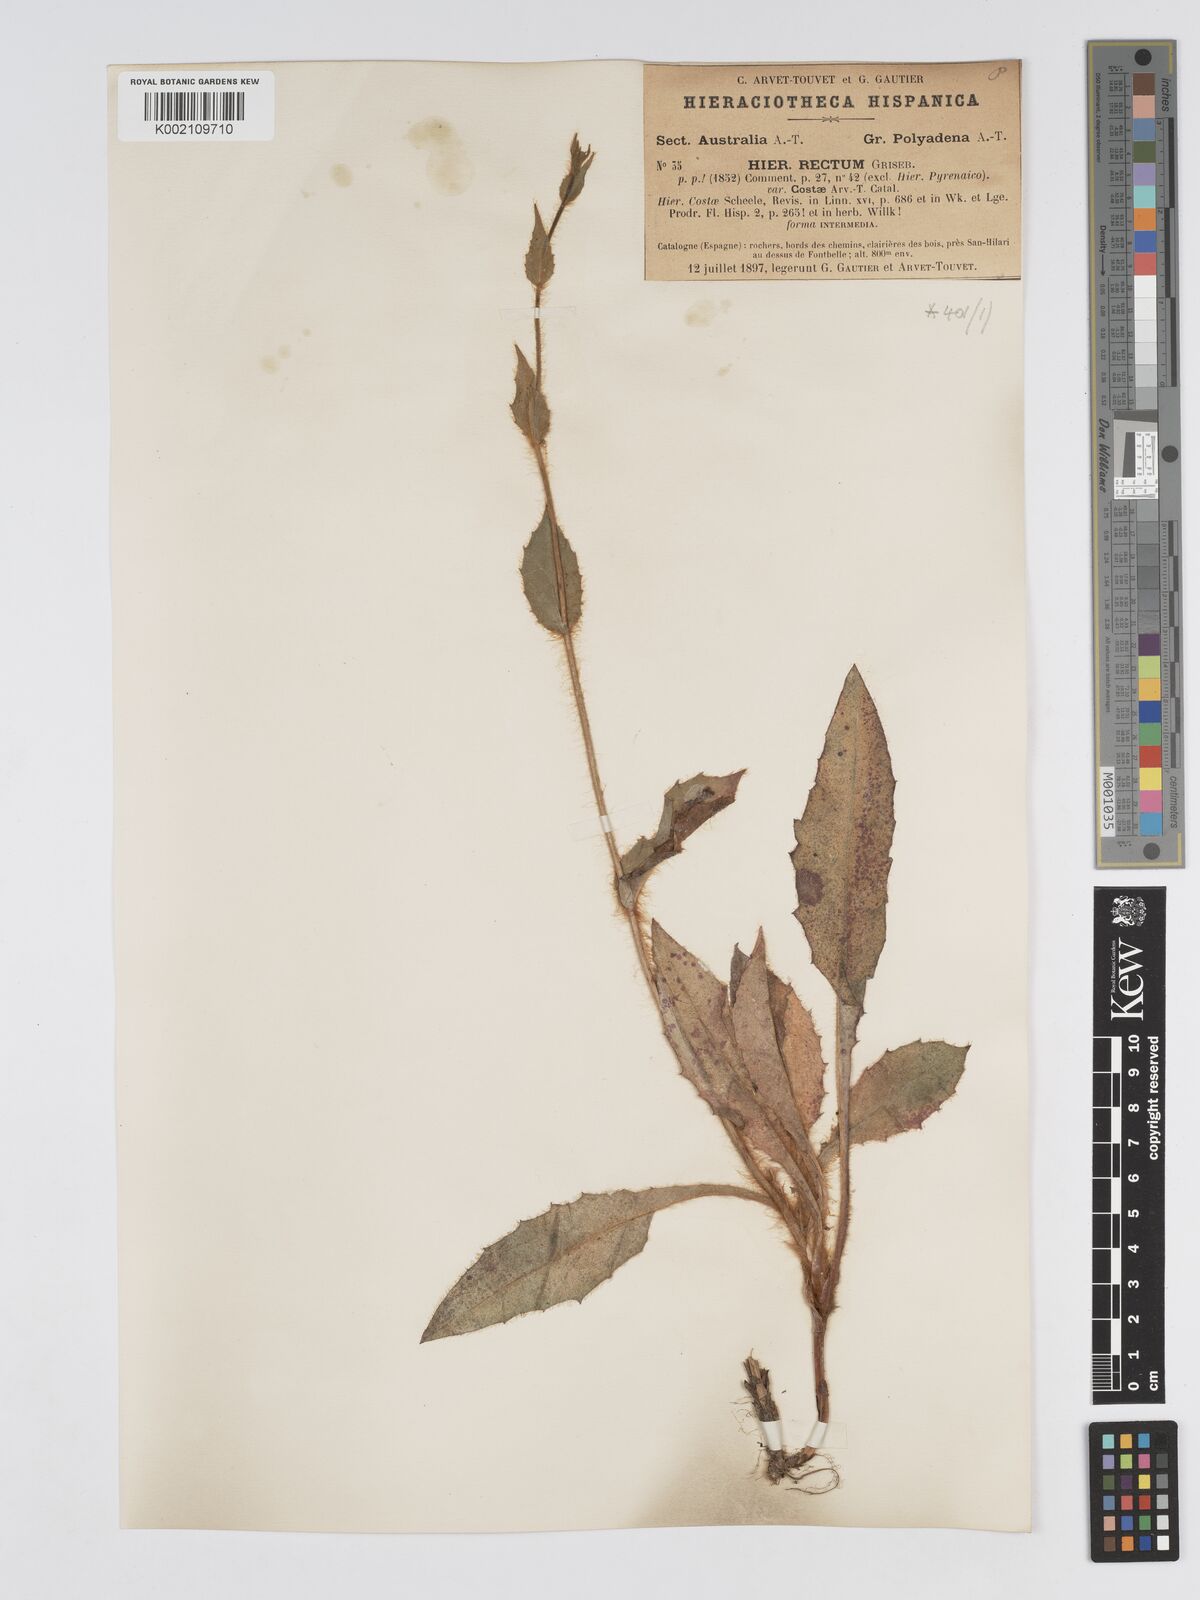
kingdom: Plantae
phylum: Tracheophyta
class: Magnoliopsida
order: Asterales
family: Asteraceae
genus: Hieracium
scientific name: Hieracium patens
